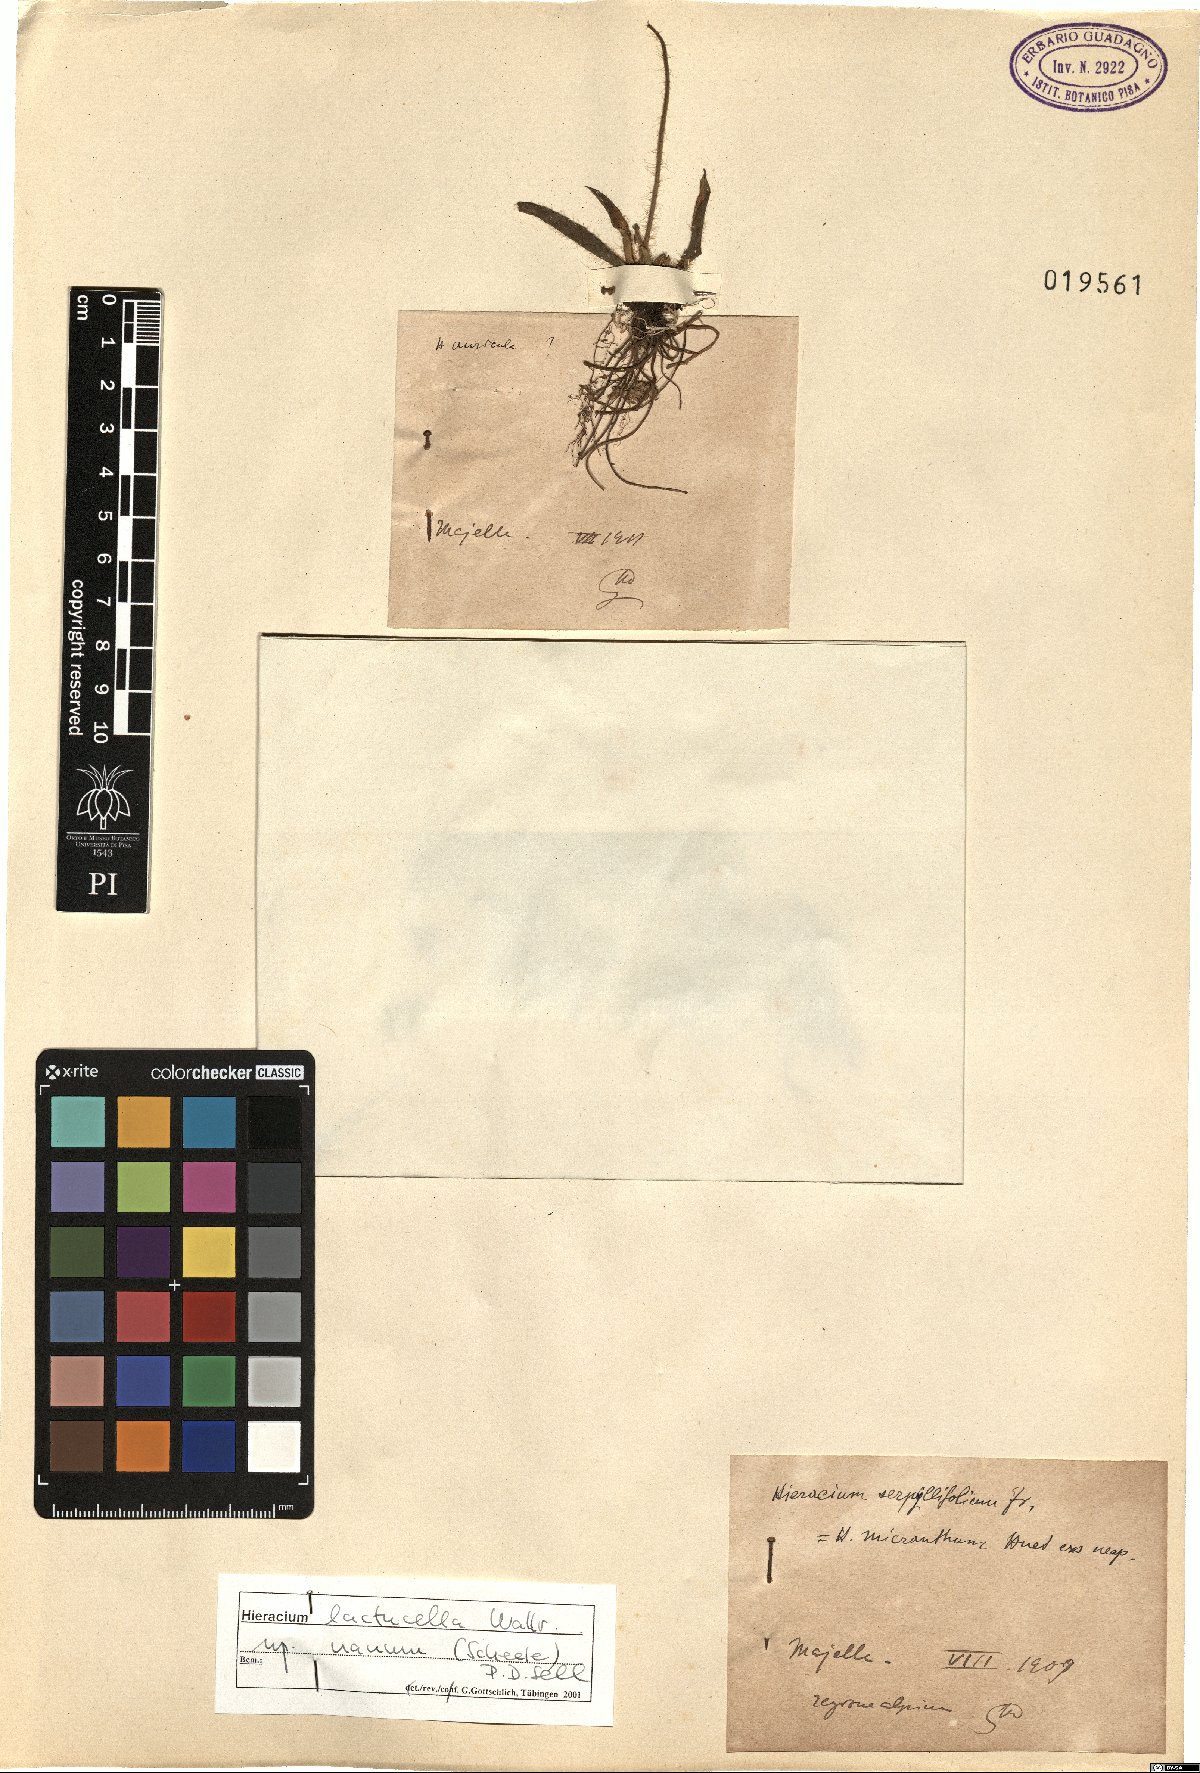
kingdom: Plantae
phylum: Tracheophyta
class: Magnoliopsida
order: Asterales
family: Asteraceae
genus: Hieracium
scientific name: Hieracium auricula
